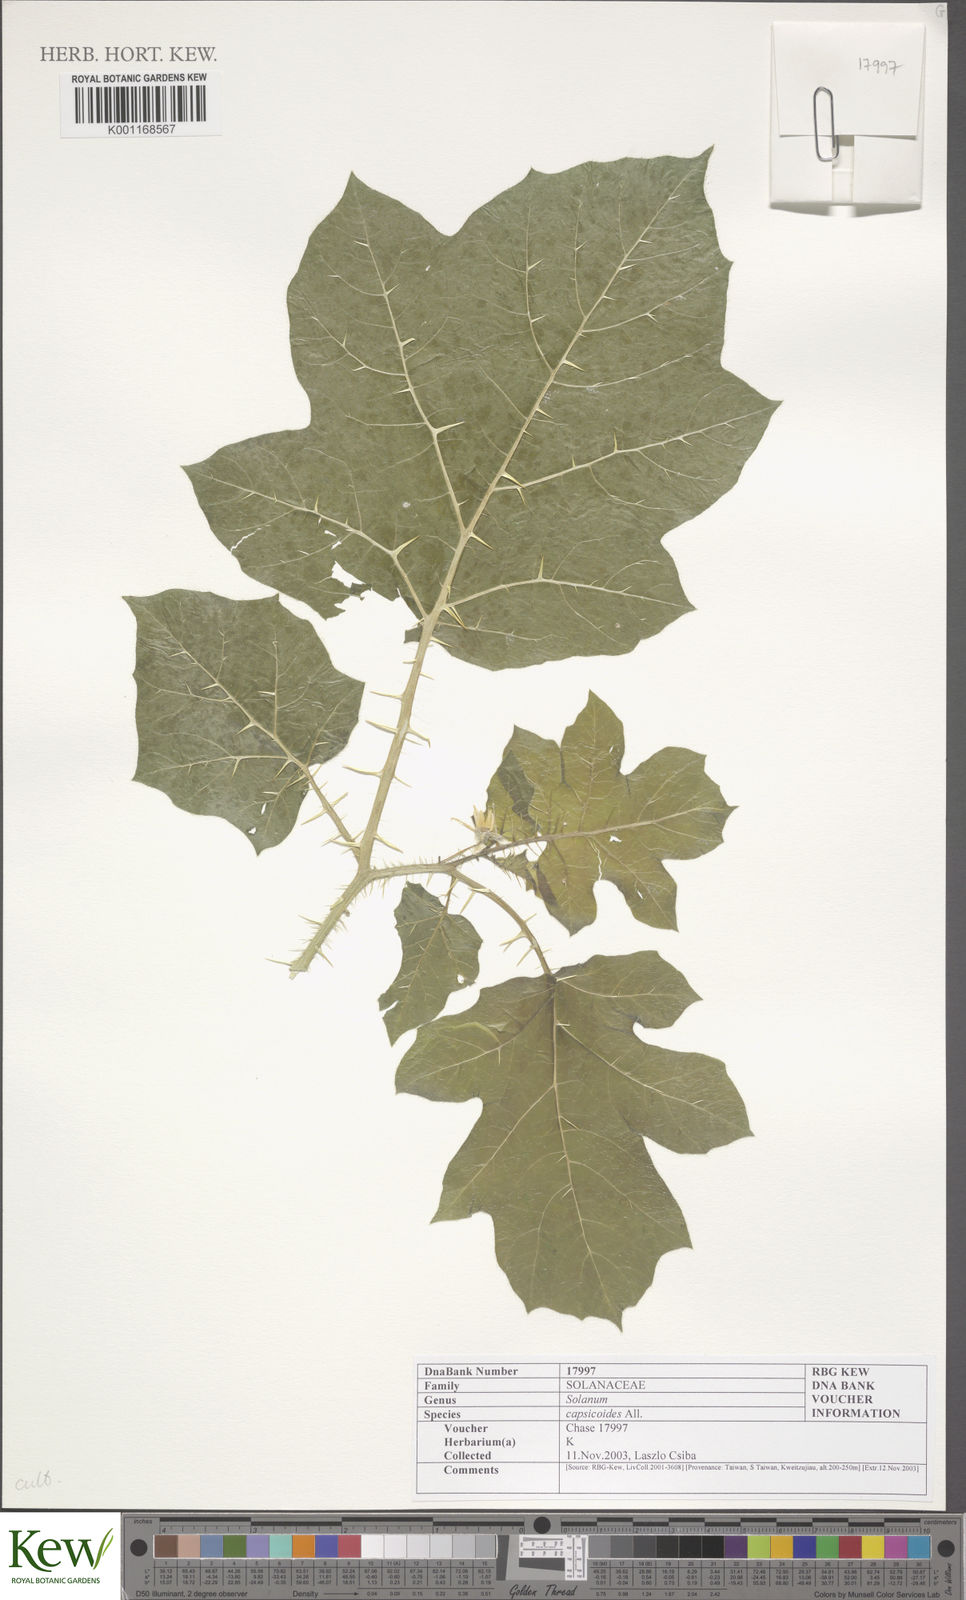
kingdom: Plantae
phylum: Tracheophyta
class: Magnoliopsida
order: Solanales
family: Solanaceae
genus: Solanum
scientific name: Solanum capsicoides
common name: Cockroach berry
